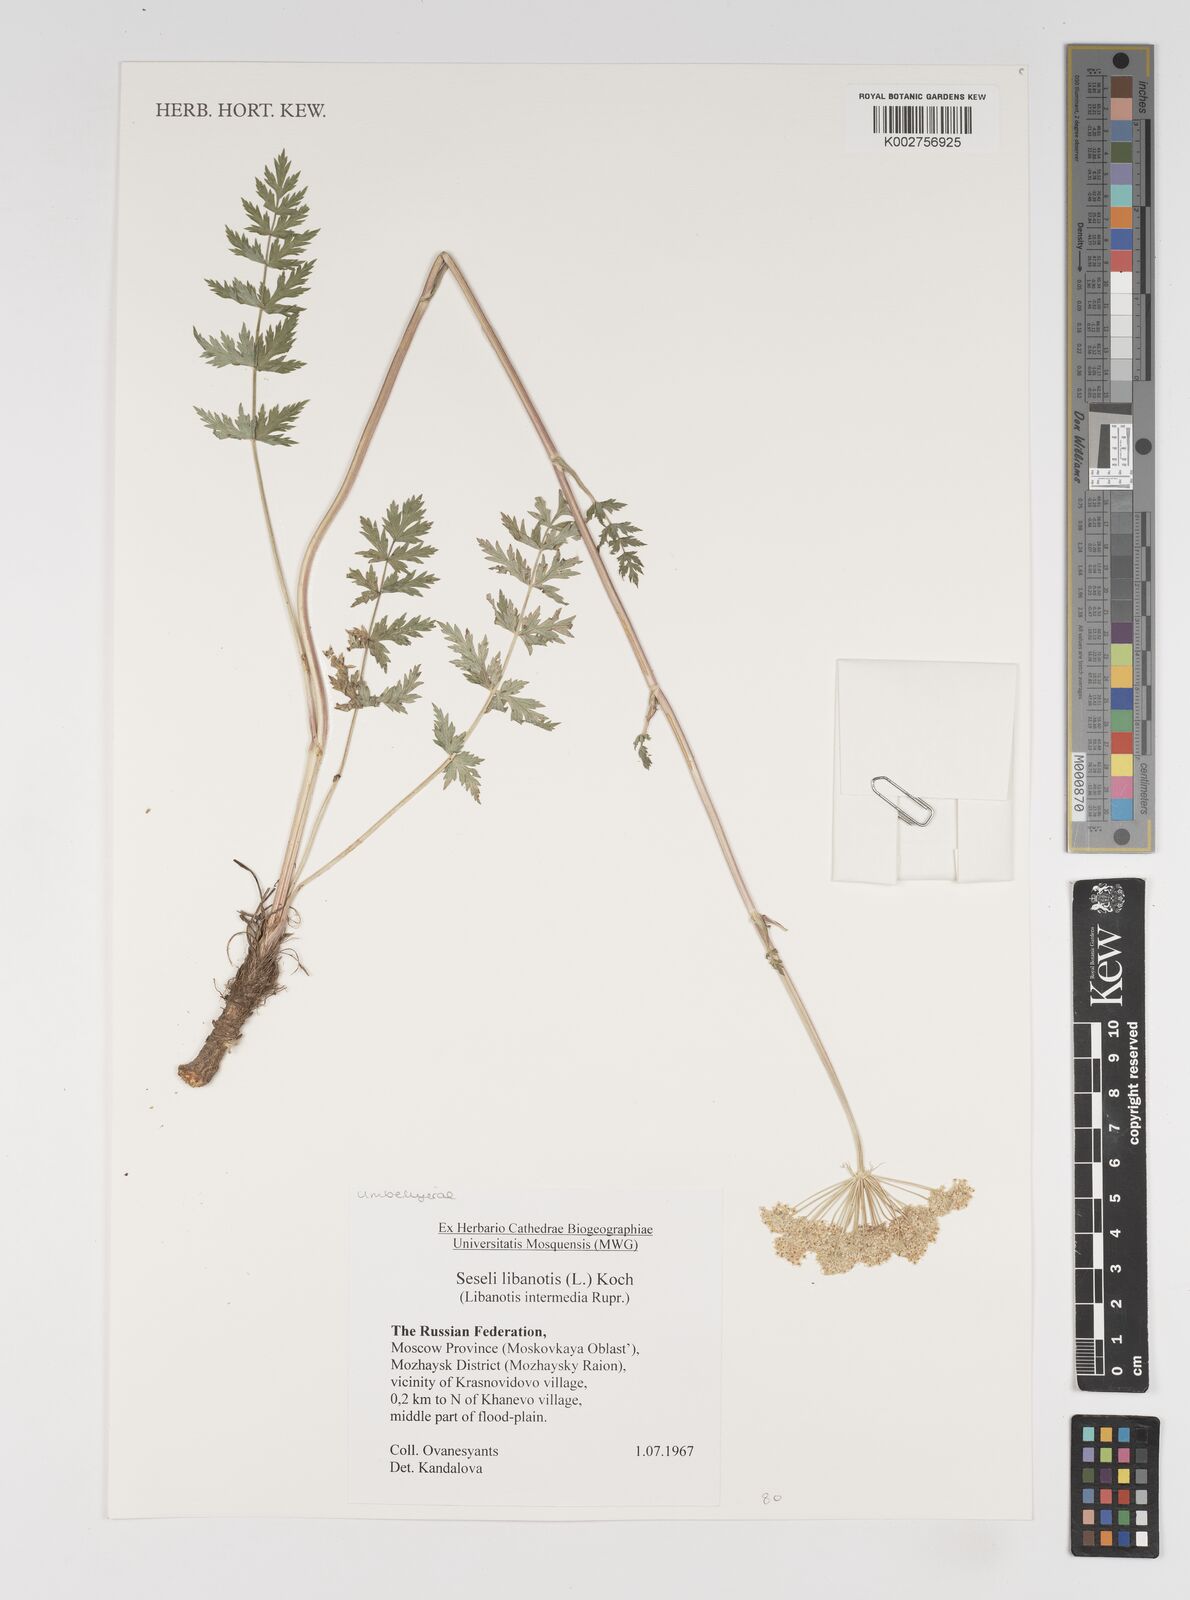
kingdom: Plantae
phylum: Tracheophyta
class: Magnoliopsida
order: Apiales
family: Apiaceae
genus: Seseli
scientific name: Seseli libanotis
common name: Mooncarrot
